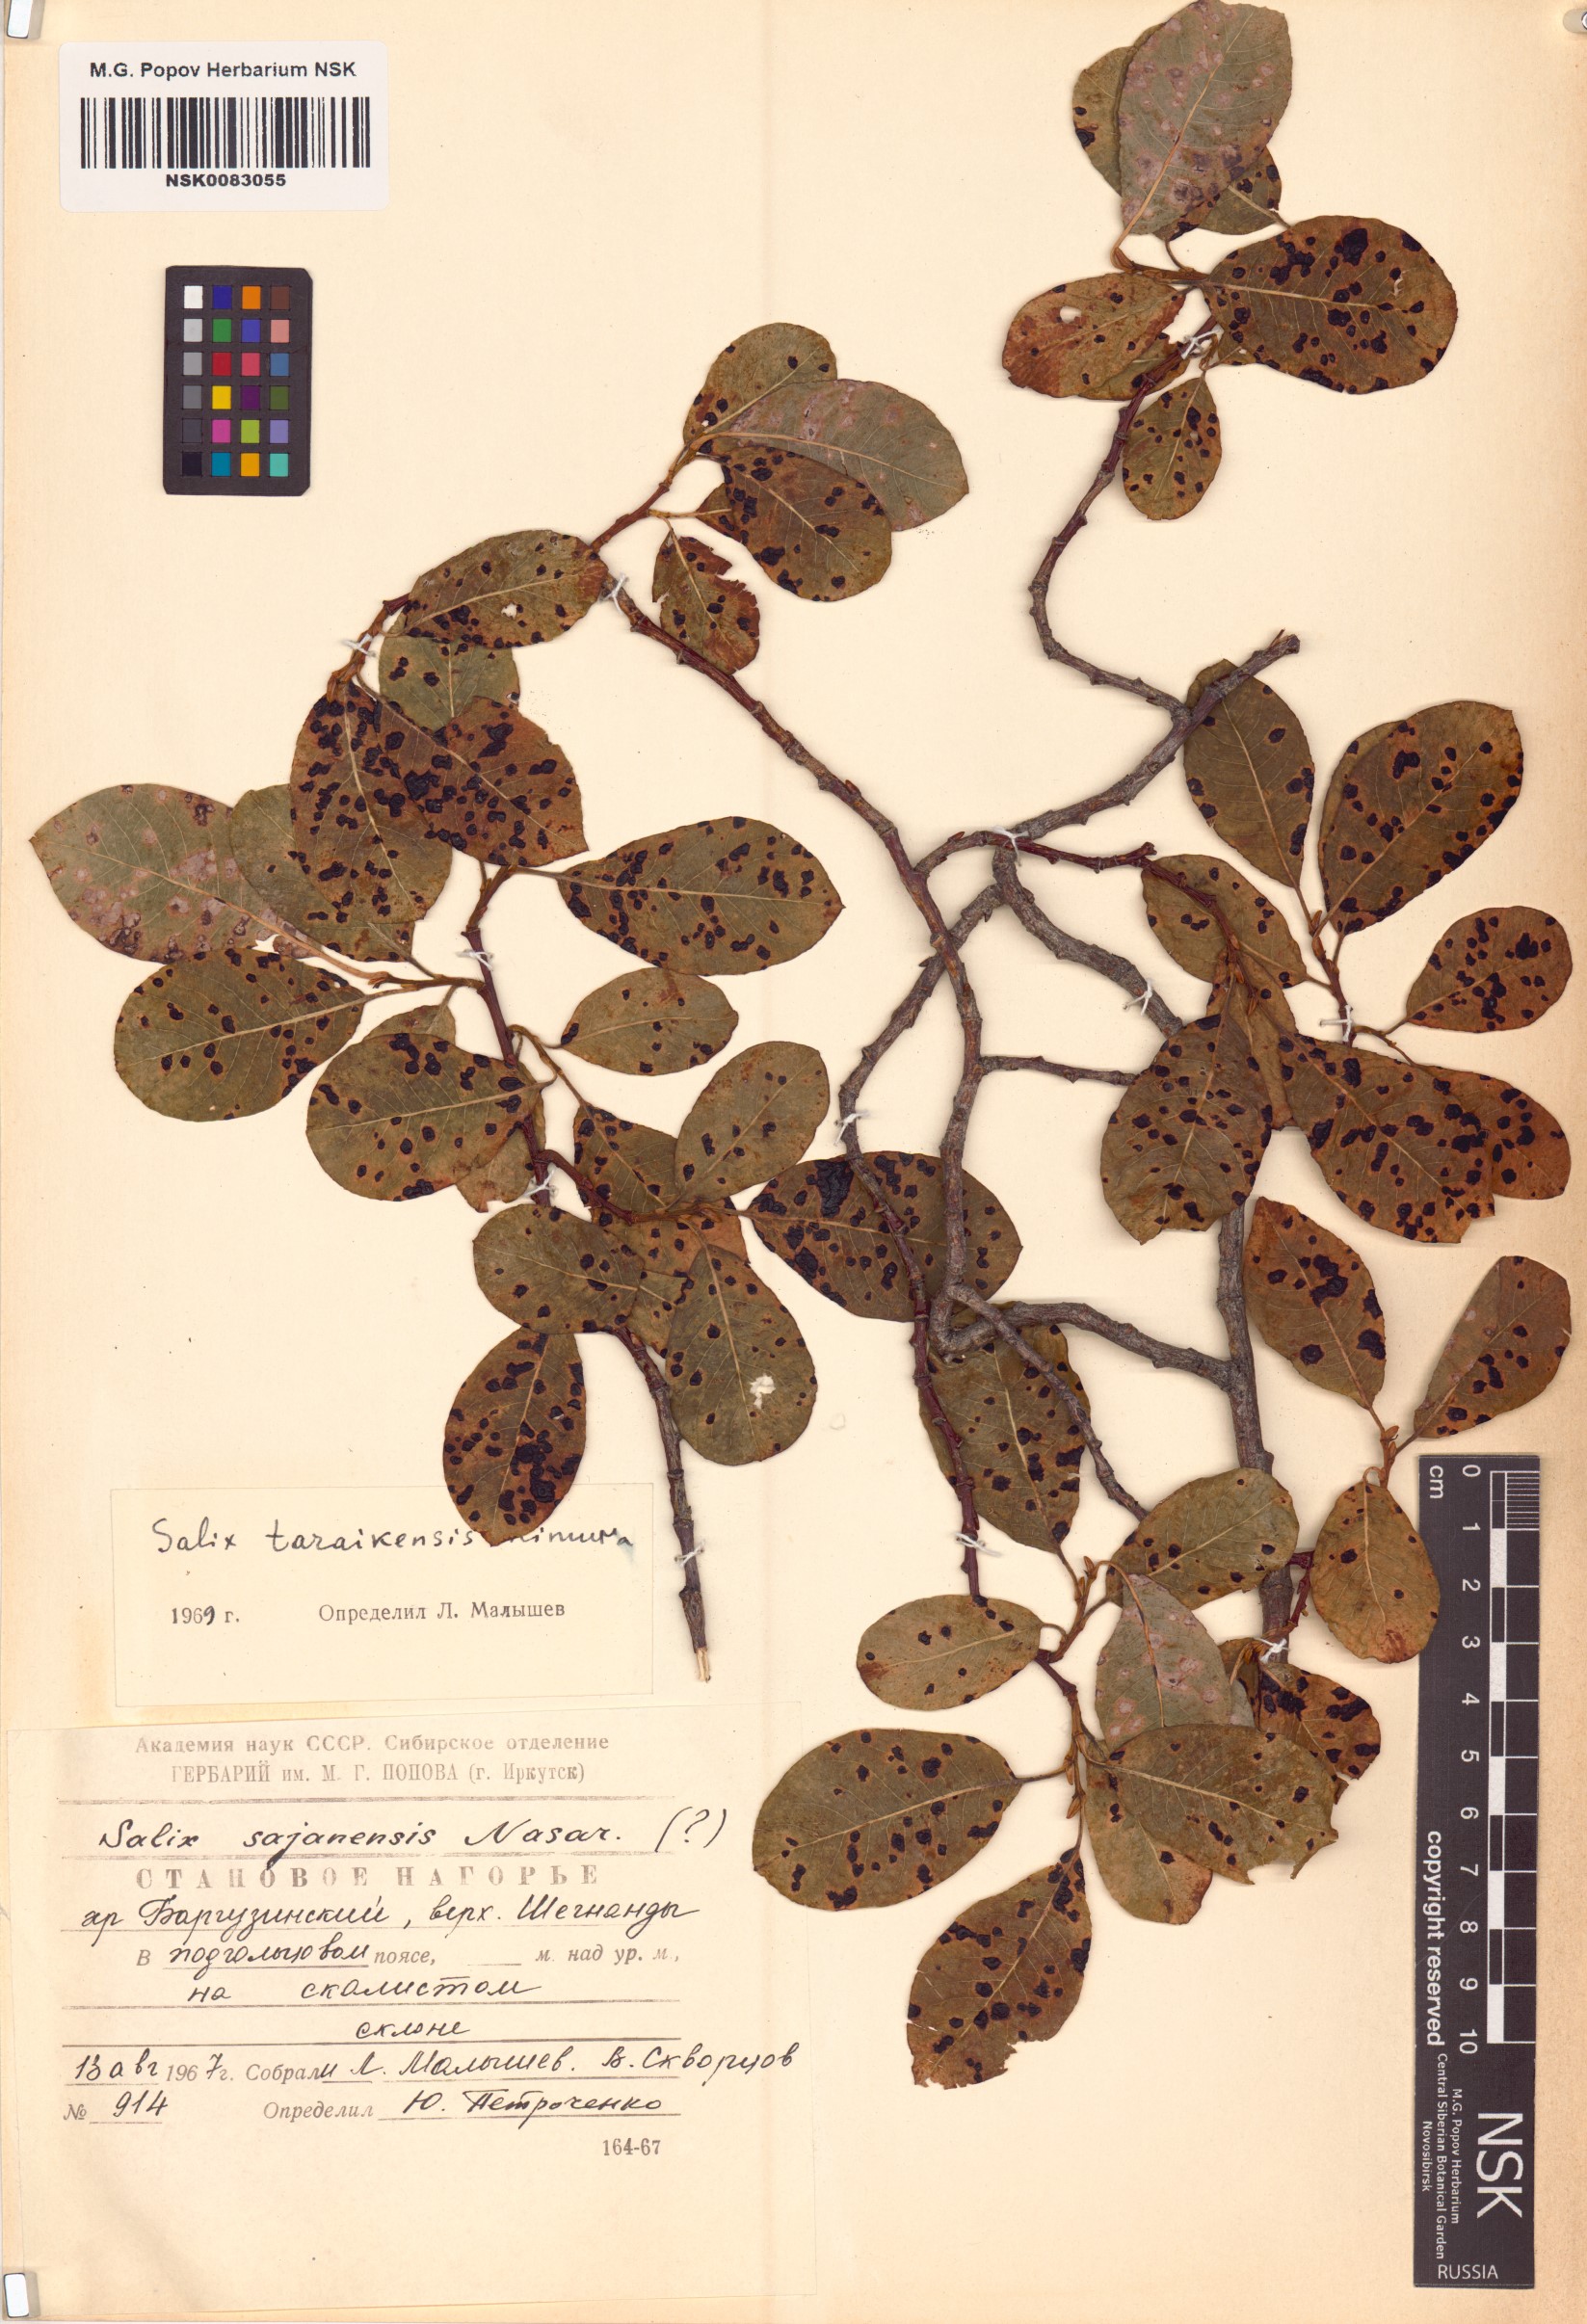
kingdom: Plantae
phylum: Tracheophyta
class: Magnoliopsida
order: Malpighiales
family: Salicaceae
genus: Salix
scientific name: Salix taraikensis
